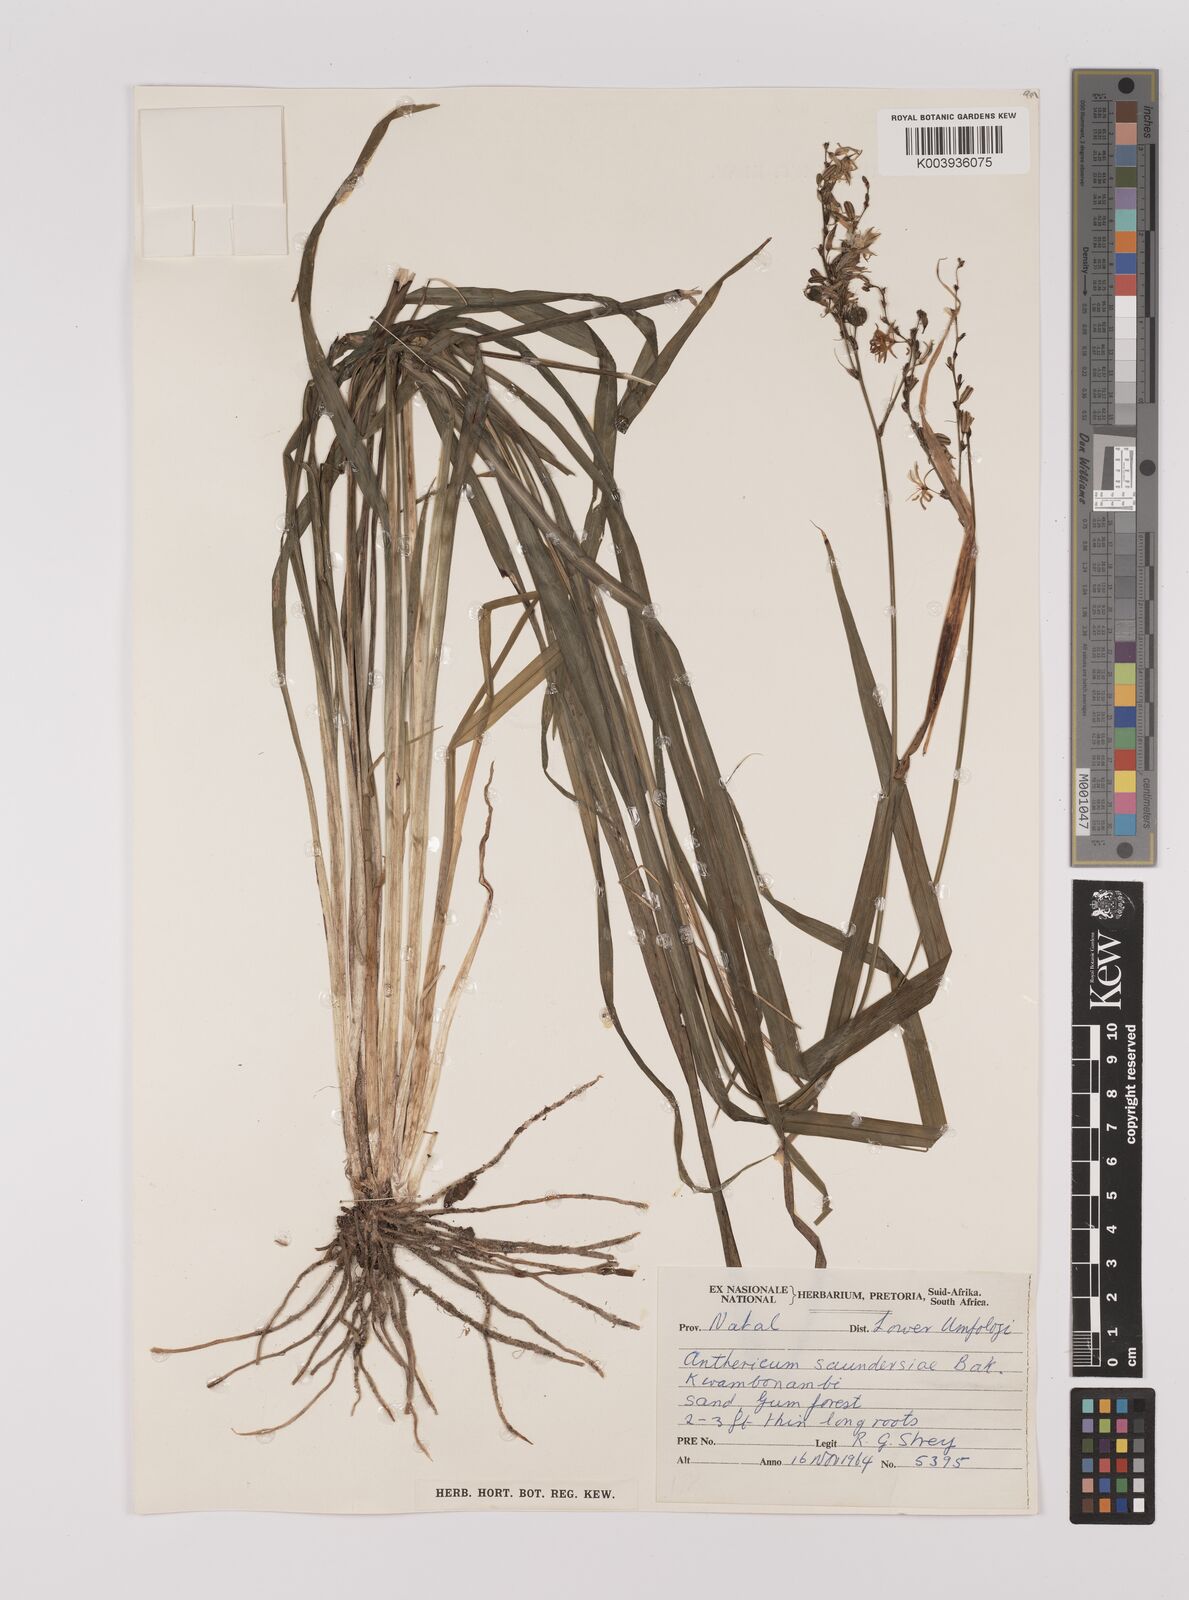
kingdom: Plantae
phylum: Tracheophyta
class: Liliopsida
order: Asparagales
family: Asparagaceae
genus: Chlorophytum
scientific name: Chlorophytum saundersiae
